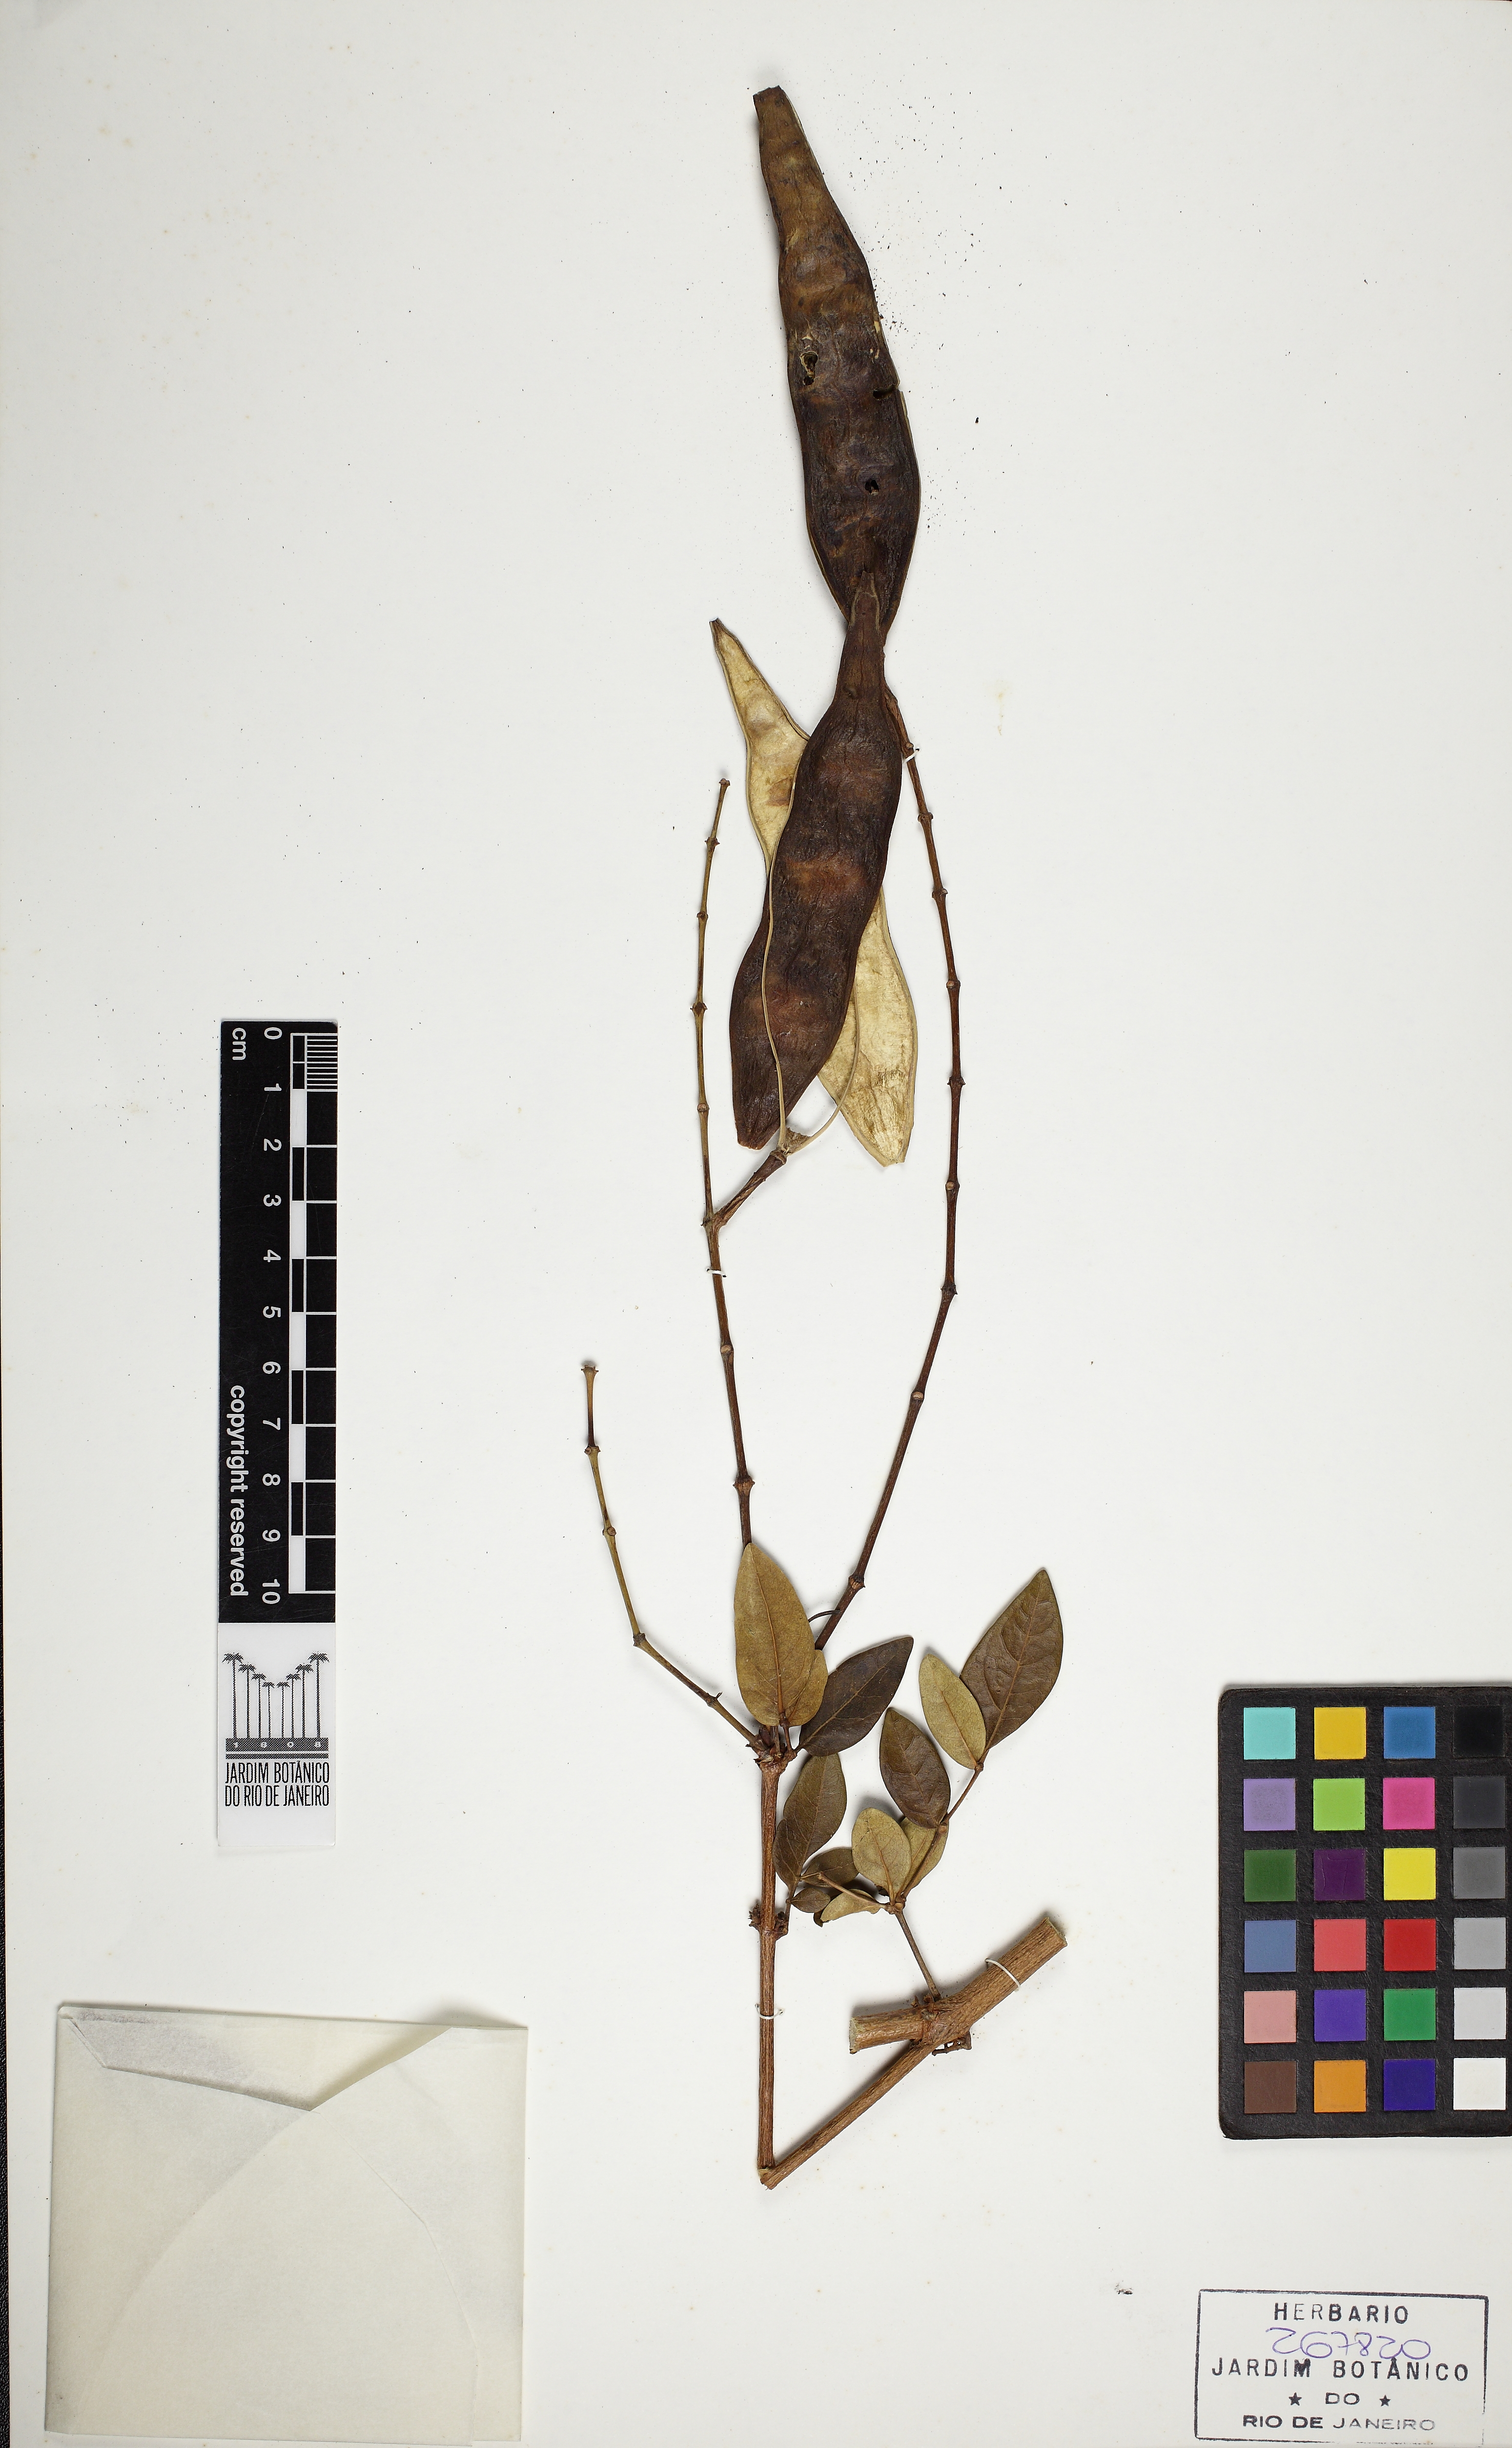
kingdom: Plantae
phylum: Tracheophyta
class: Magnoliopsida
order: Lamiales
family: Bignoniaceae
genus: Adenocalymma
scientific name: Adenocalymma nodosum
